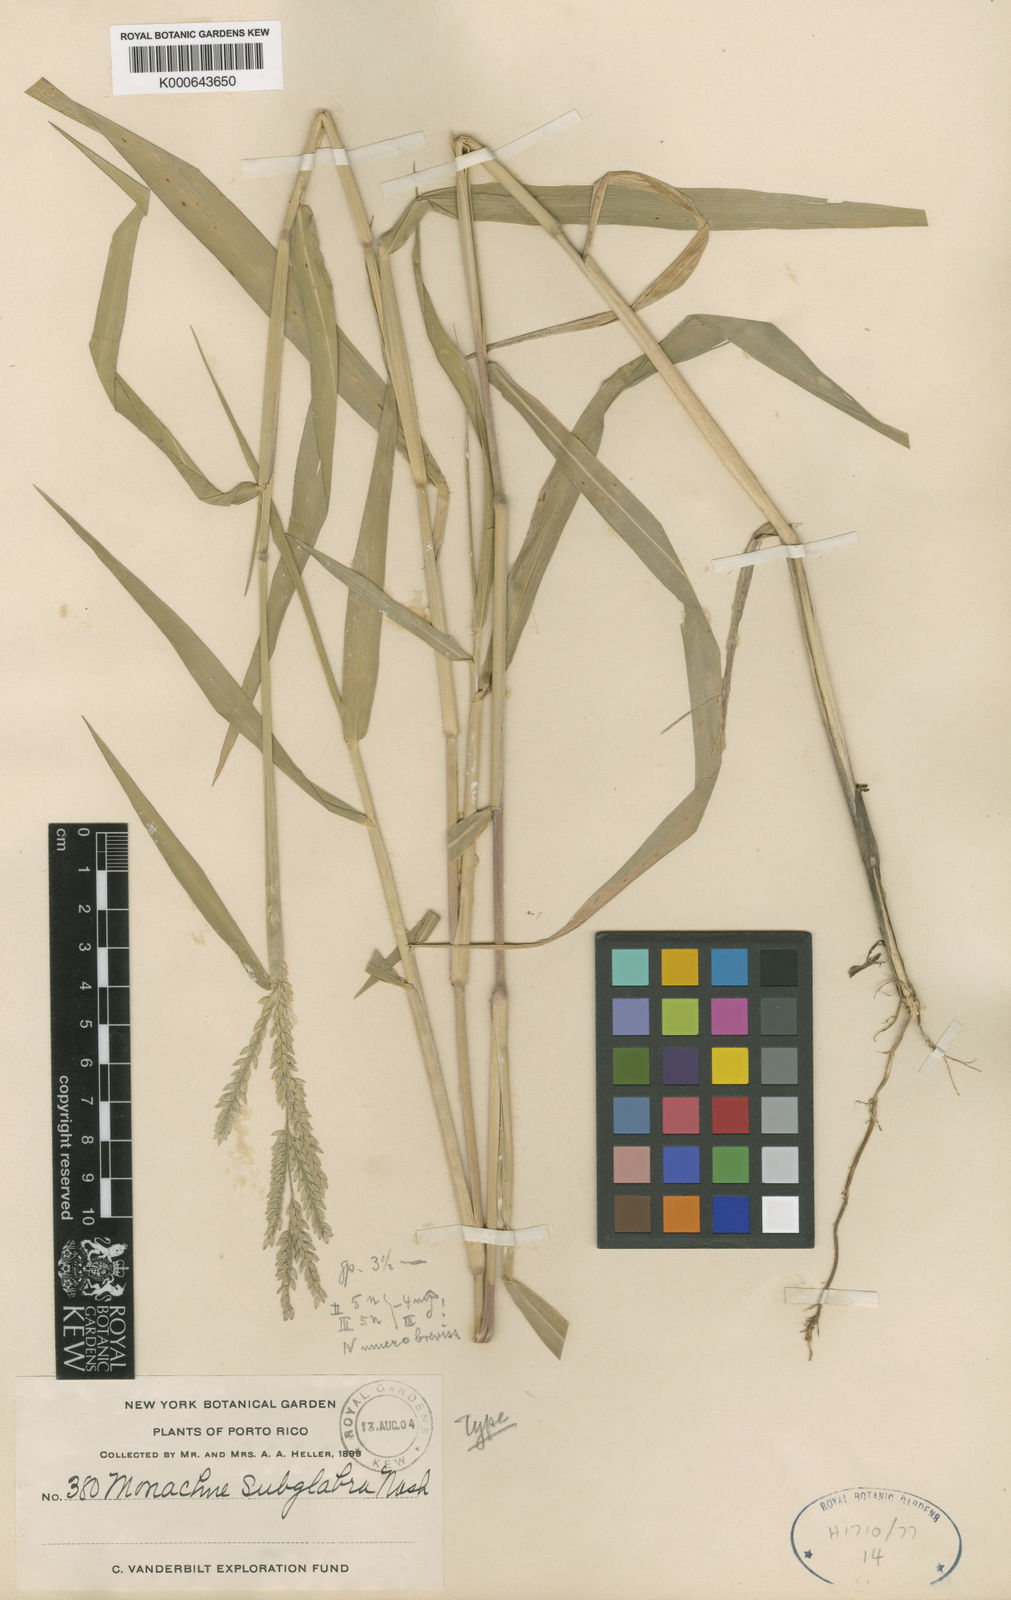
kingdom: Plantae
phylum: Tracheophyta
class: Liliopsida
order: Poales
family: Poaceae
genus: Maclurolyra
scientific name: Maclurolyra
